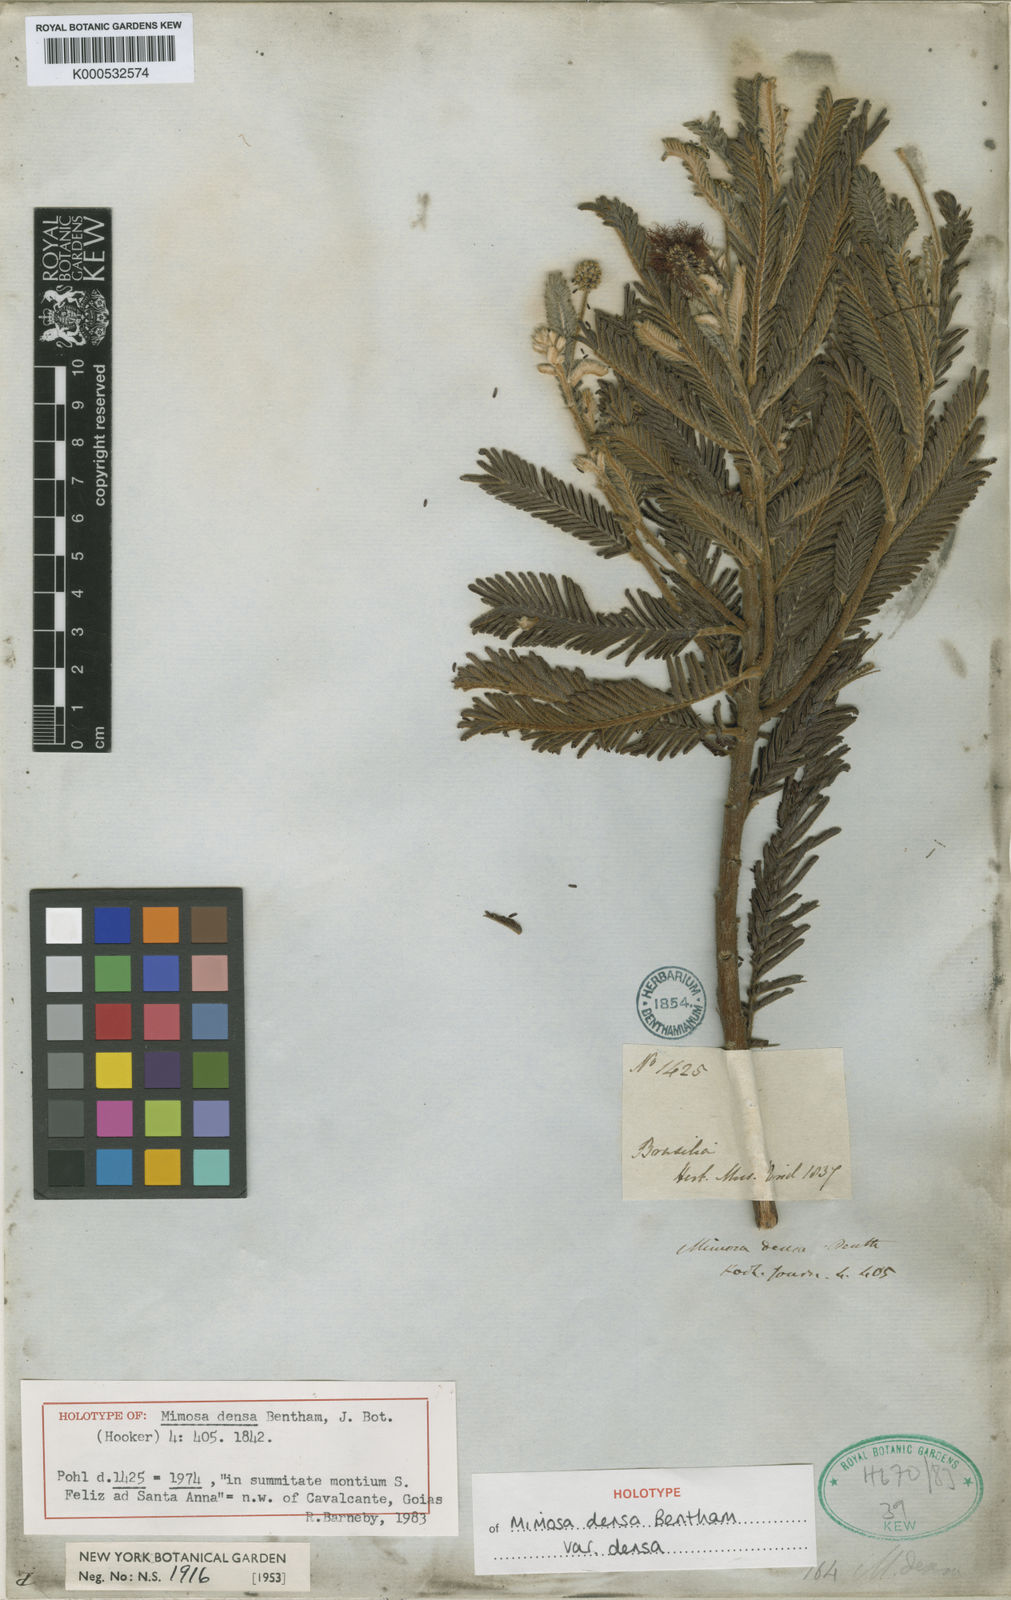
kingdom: Plantae
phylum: Tracheophyta
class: Magnoliopsida
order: Fabales
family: Fabaceae
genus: Mimosa
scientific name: Mimosa densa
